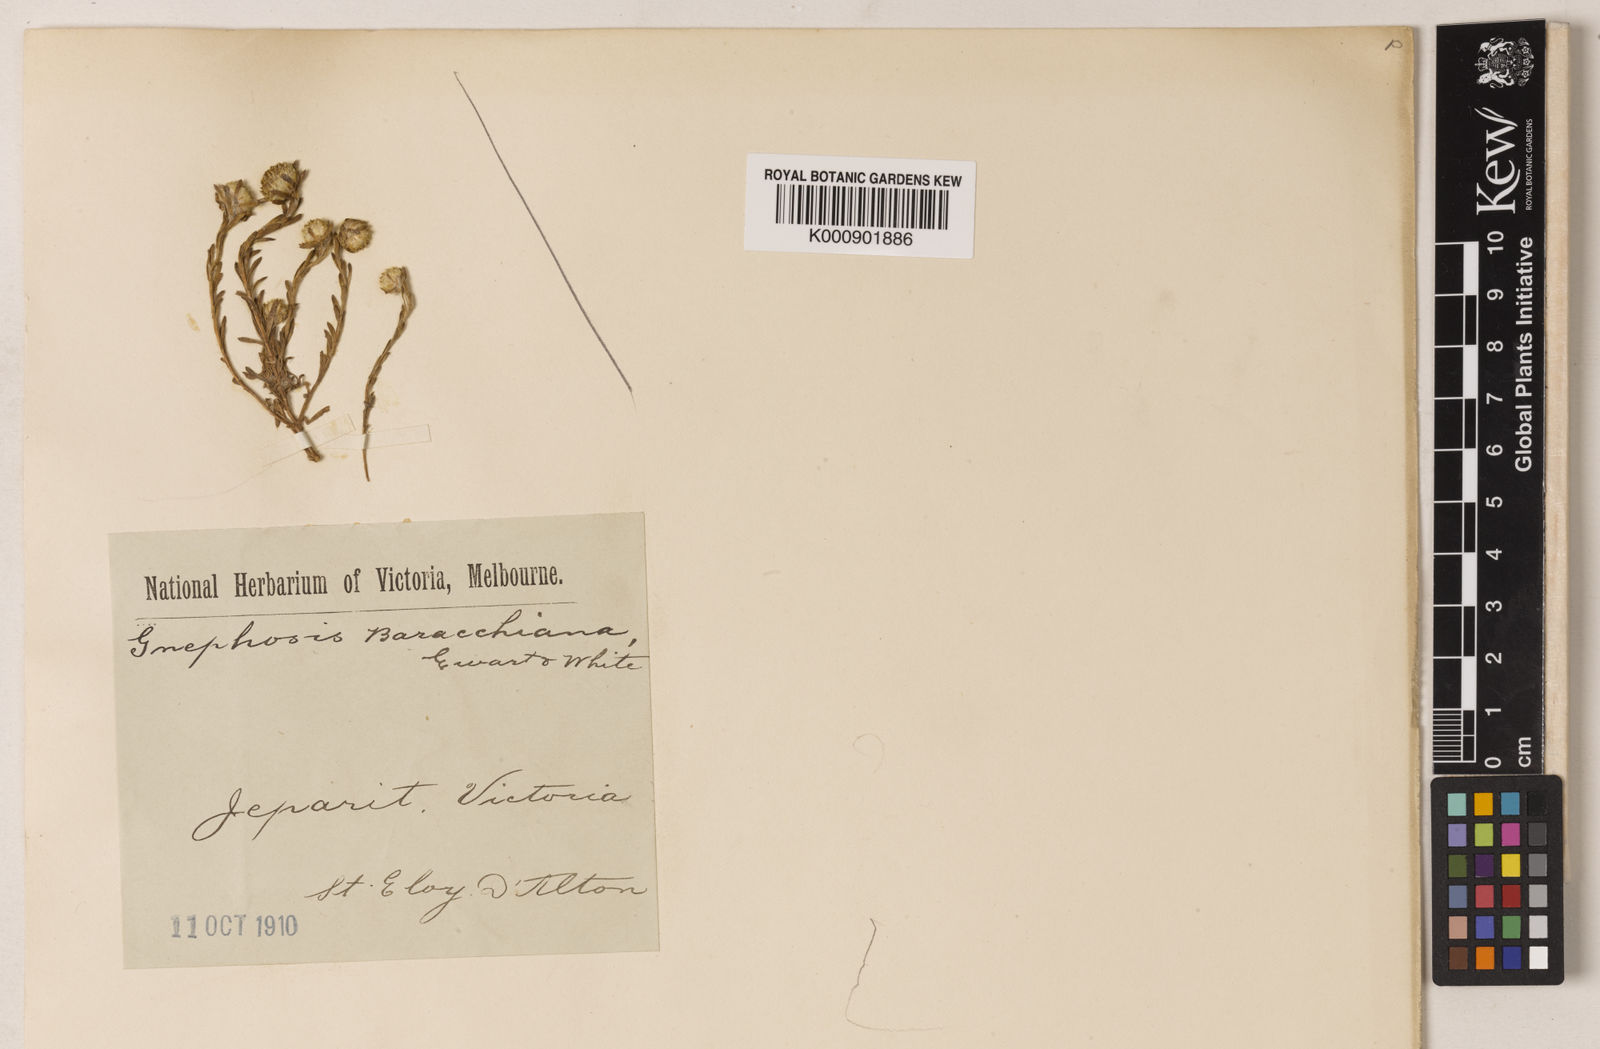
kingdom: Plantae
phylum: Tracheophyta
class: Magnoliopsida
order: Asterales
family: Asteraceae
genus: Trichanthodium
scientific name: Trichanthodium
